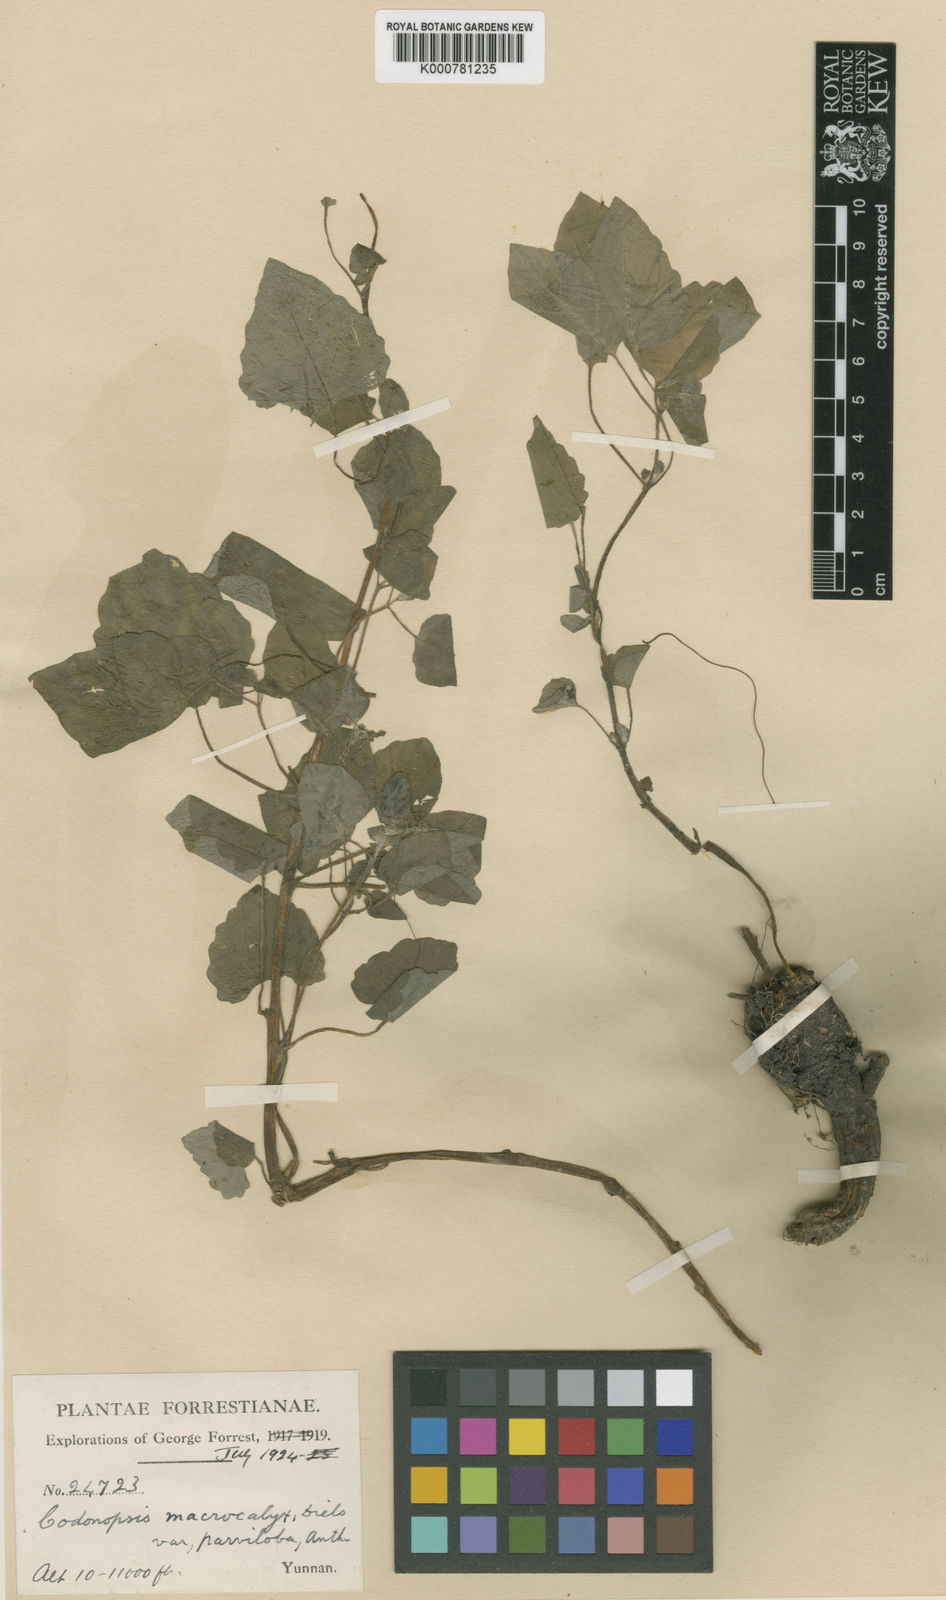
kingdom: Plantae
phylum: Tracheophyta
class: Magnoliopsida
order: Asterales
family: Campanulaceae
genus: Codonopsis
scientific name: Codonopsis benthamii
